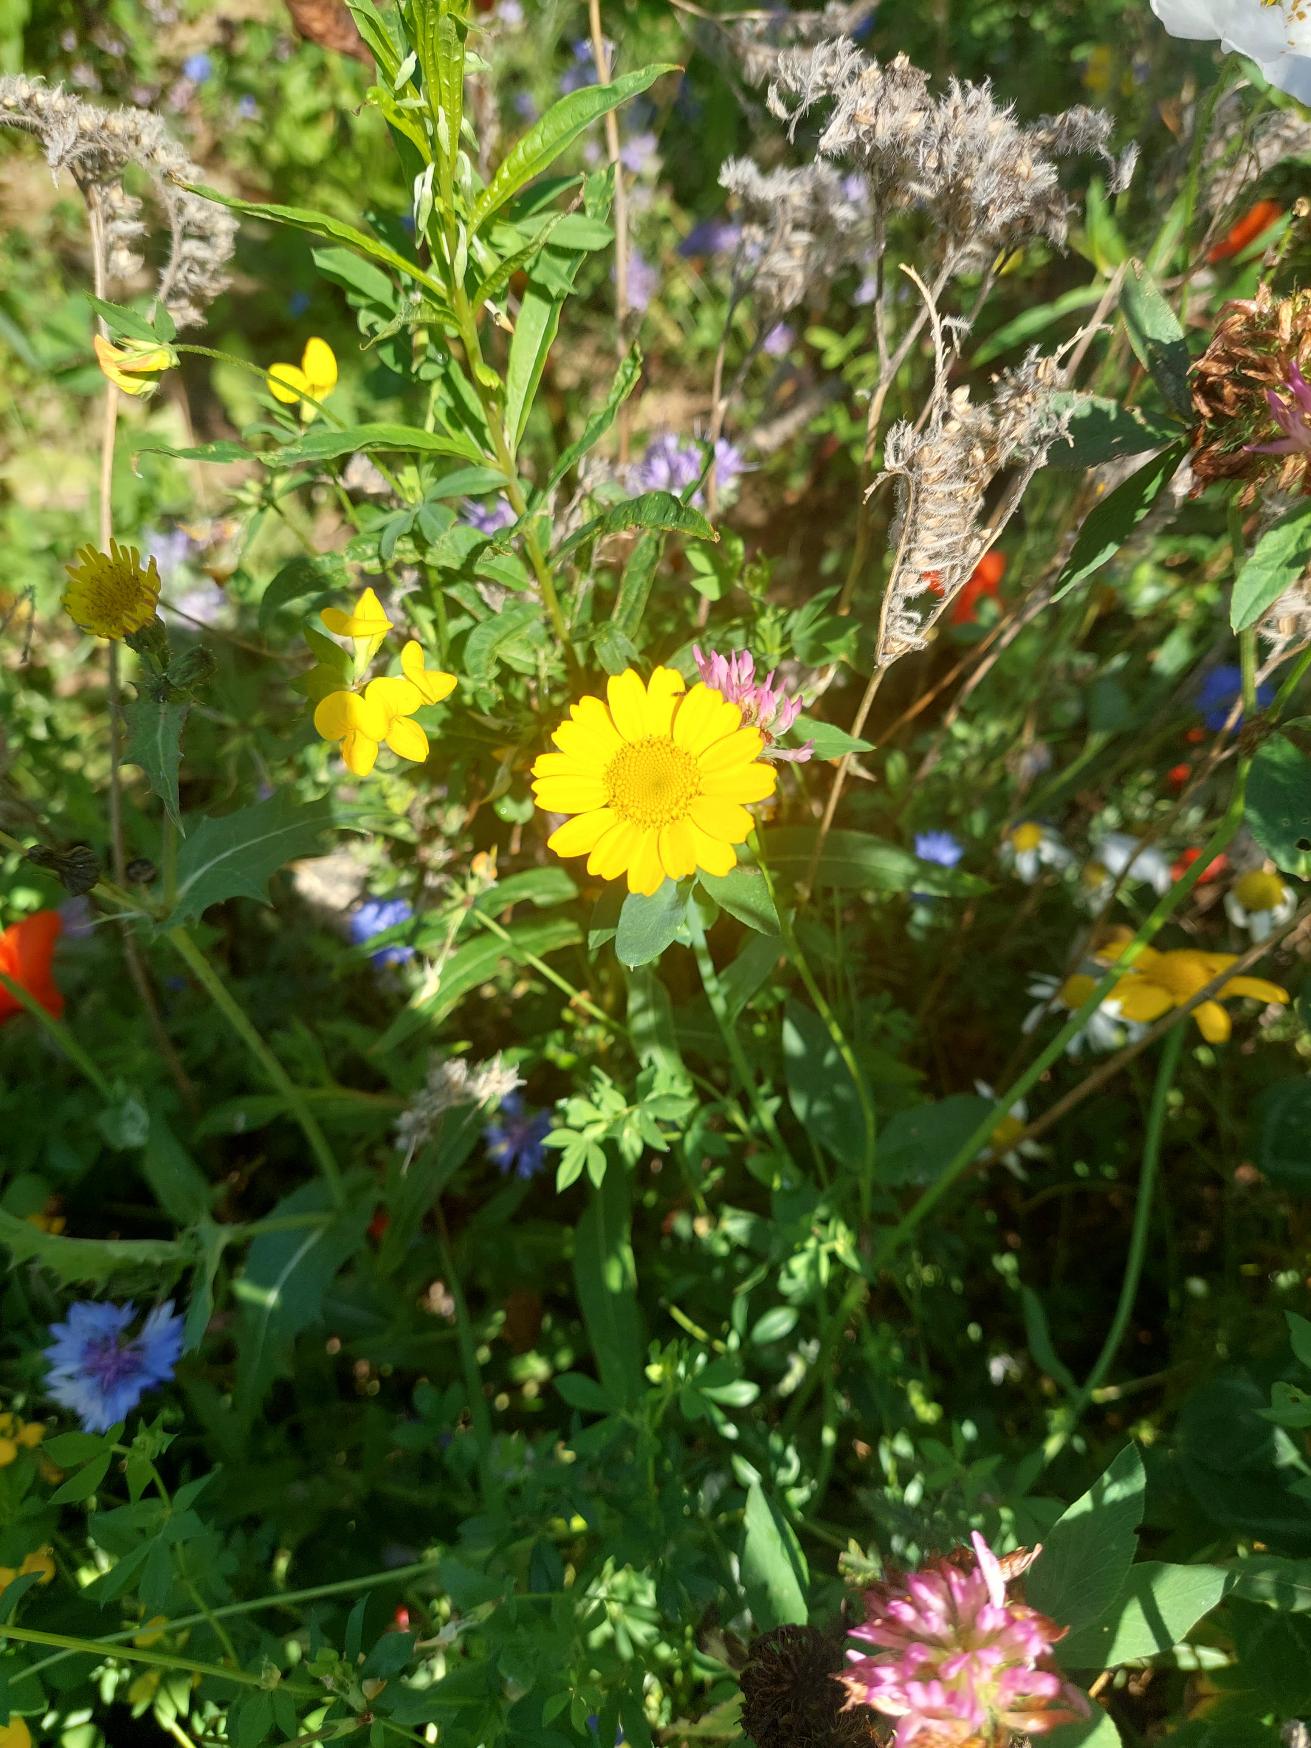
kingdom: Plantae
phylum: Tracheophyta
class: Magnoliopsida
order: Asterales
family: Asteraceae
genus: Glebionis
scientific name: Glebionis segetum
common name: Gul okseøje
